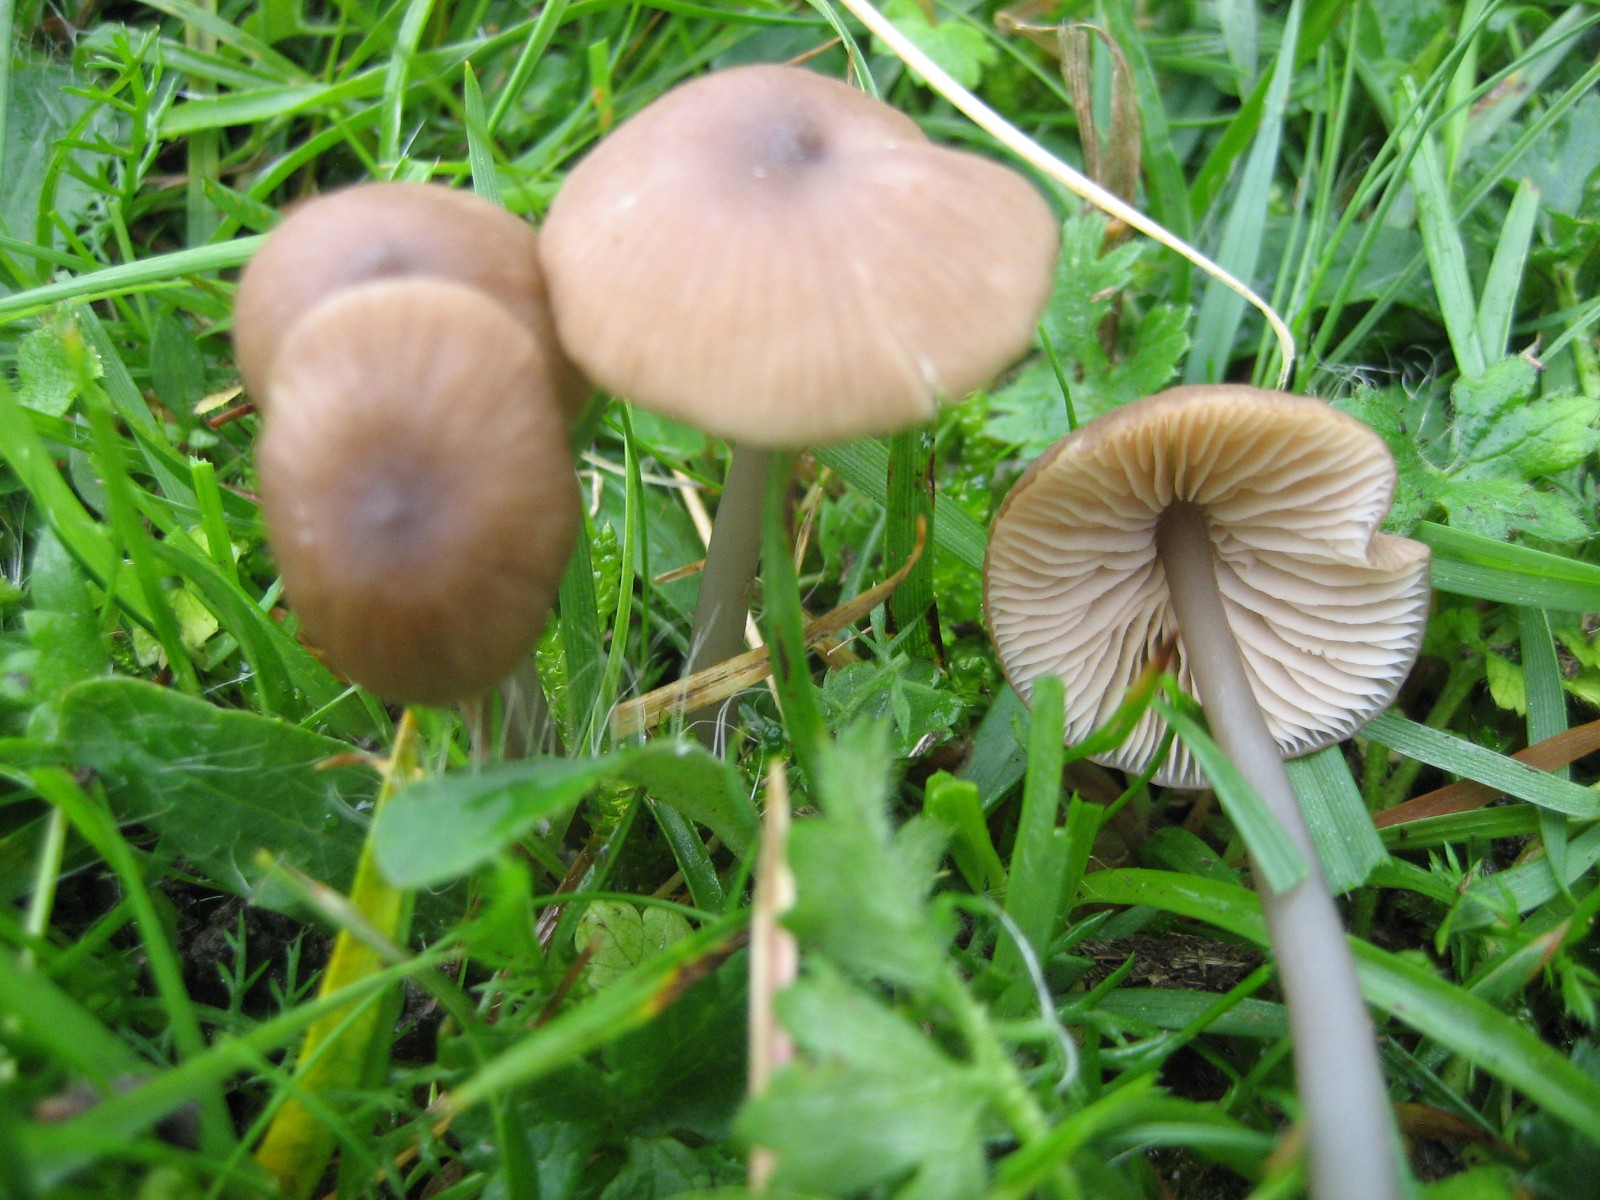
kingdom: Fungi
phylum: Basidiomycota
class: Agaricomycetes
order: Agaricales
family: Entolomataceae
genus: Entoloma
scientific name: Entoloma
